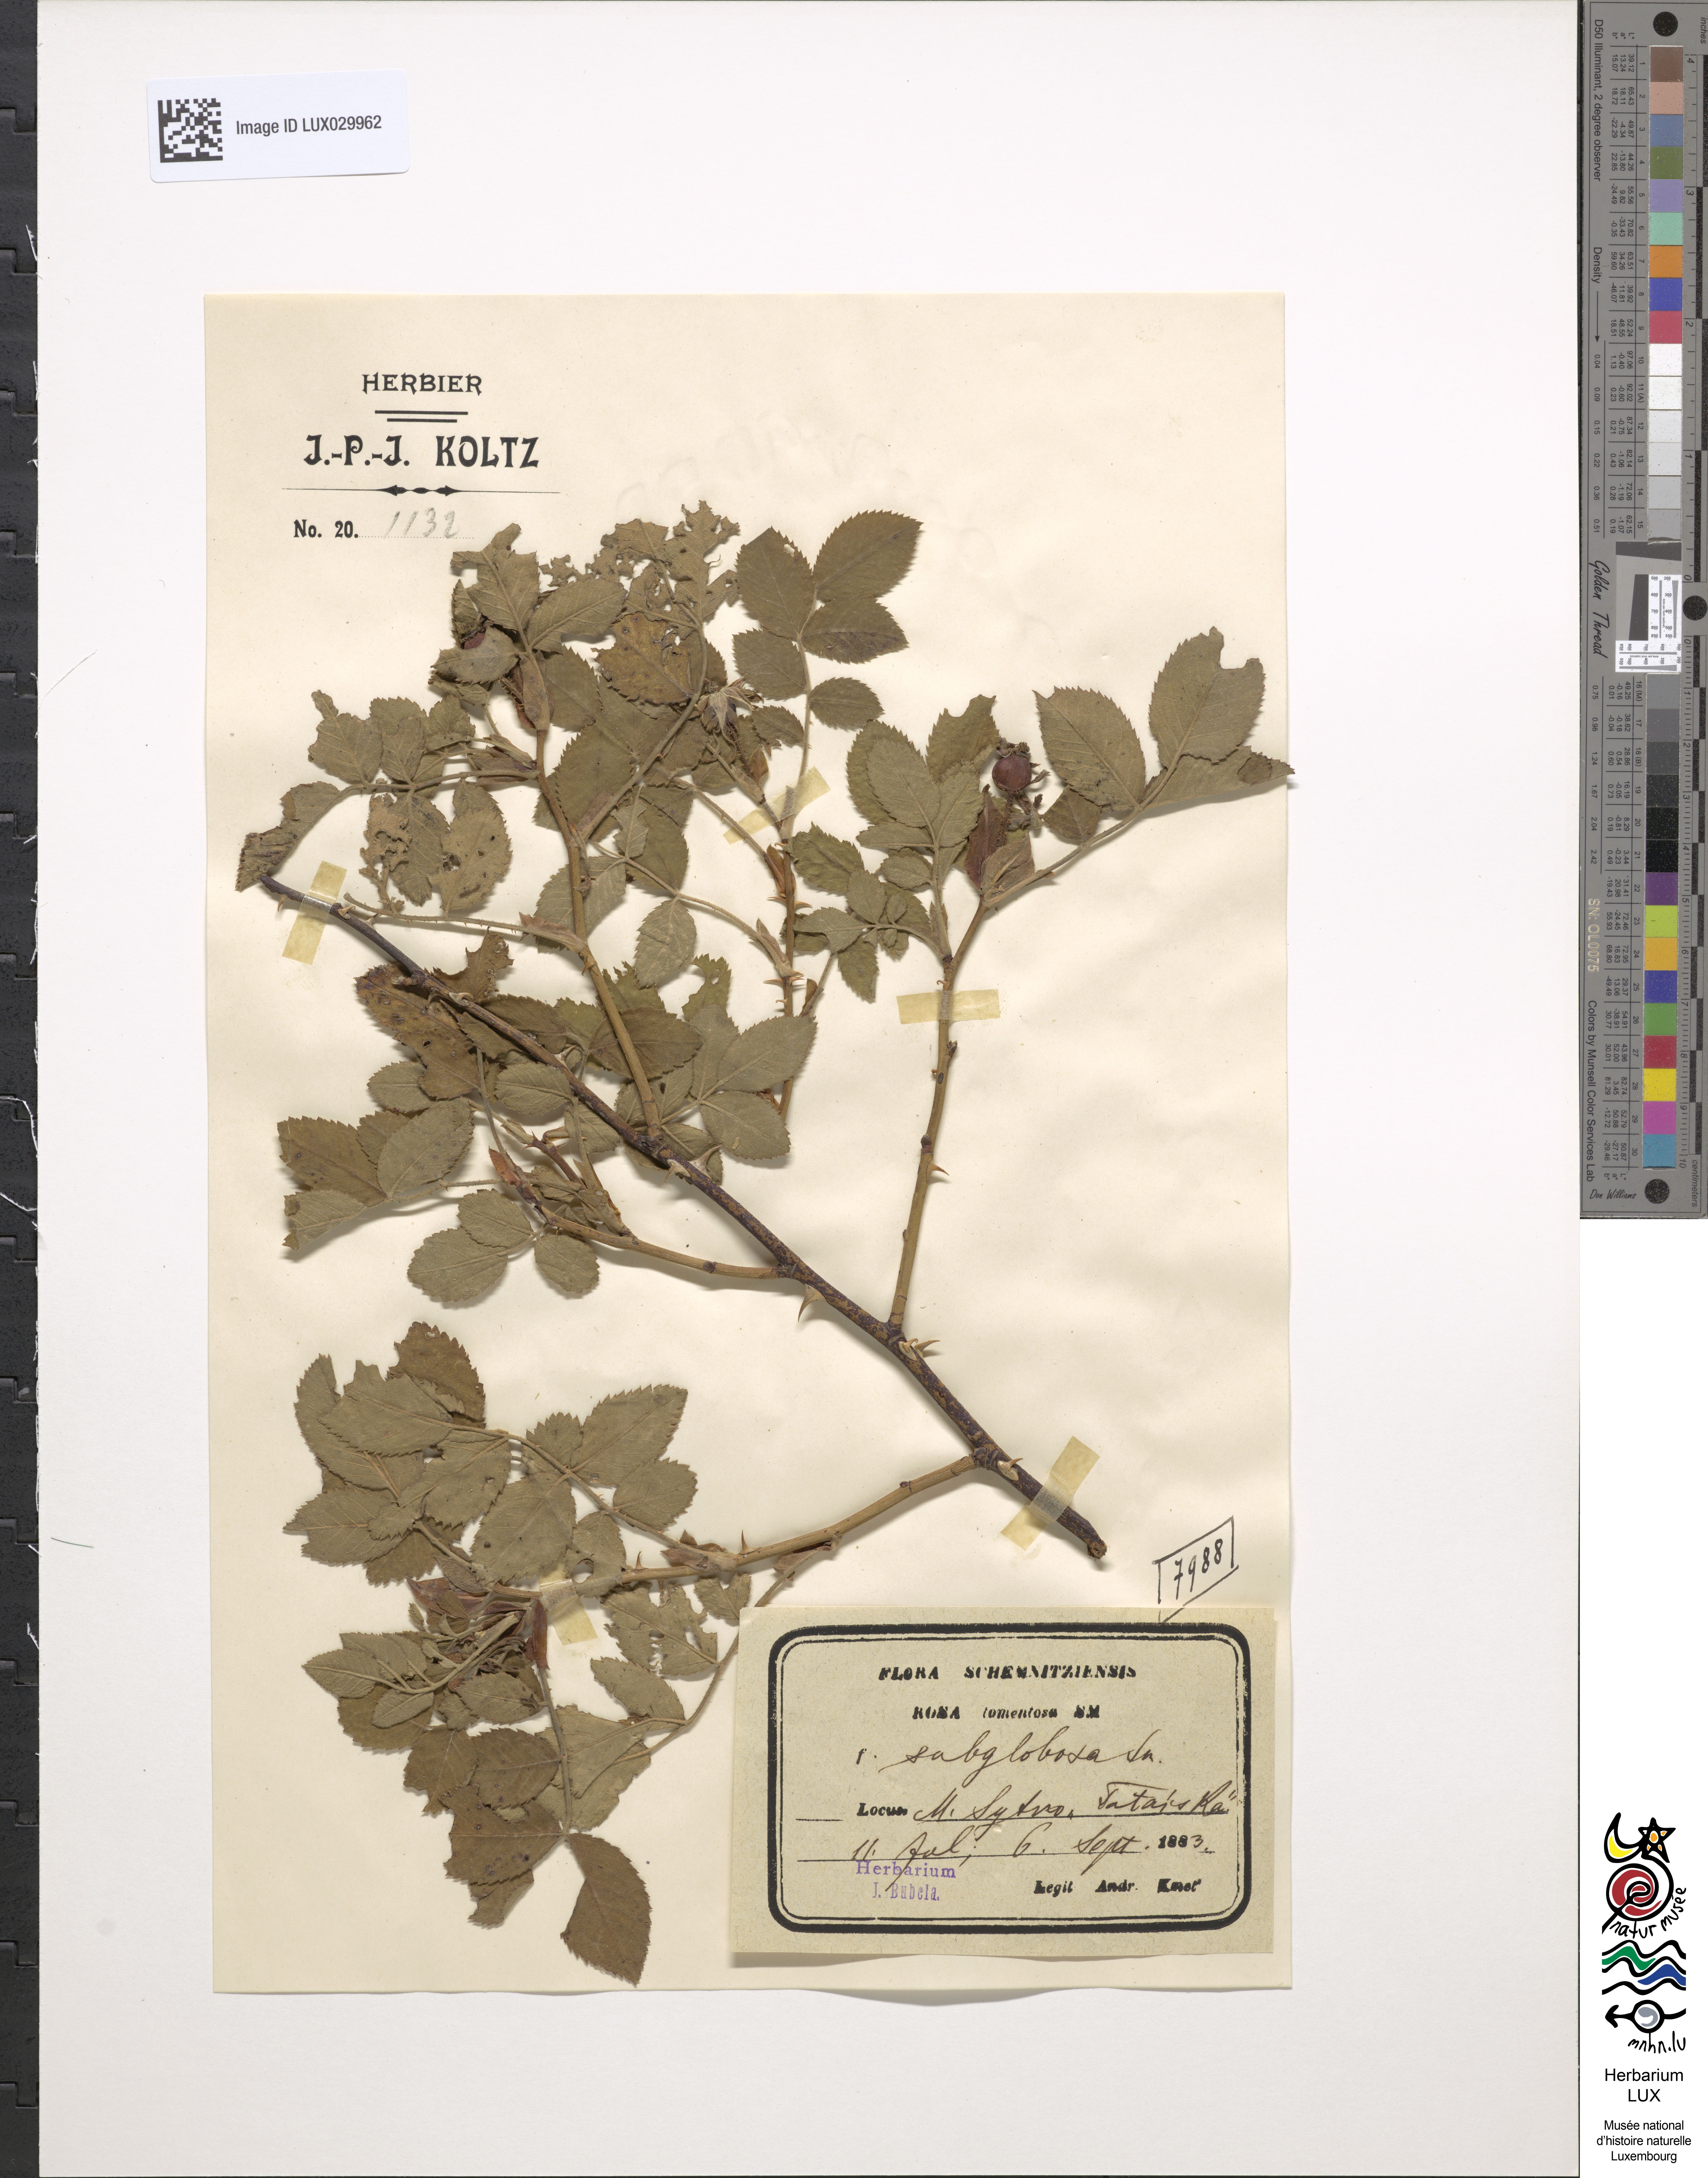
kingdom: Plantae
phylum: Tracheophyta
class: Magnoliopsida
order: Rosales
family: Rosaceae
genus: Rosa
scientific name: Rosa tomentosa
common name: Downy rose
